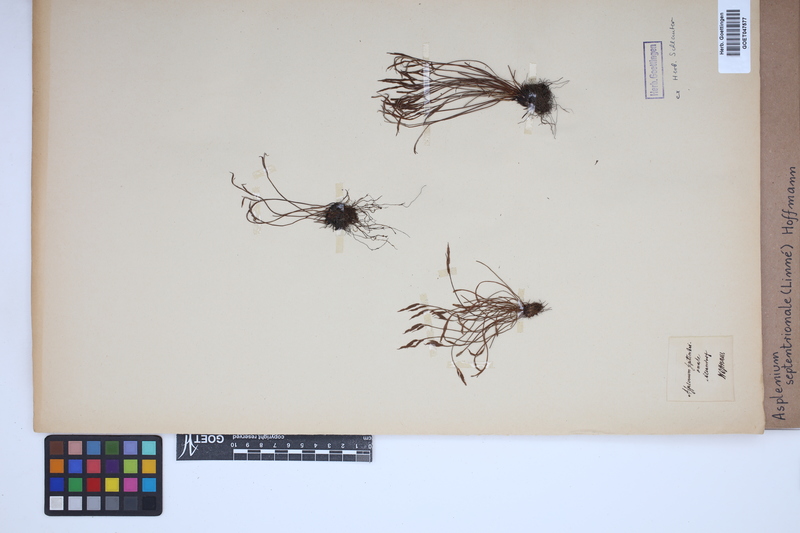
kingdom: Plantae
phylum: Tracheophyta
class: Polypodiopsida
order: Polypodiales
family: Aspleniaceae
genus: Asplenium
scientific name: Asplenium septentrionale
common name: Forked spleenwort
